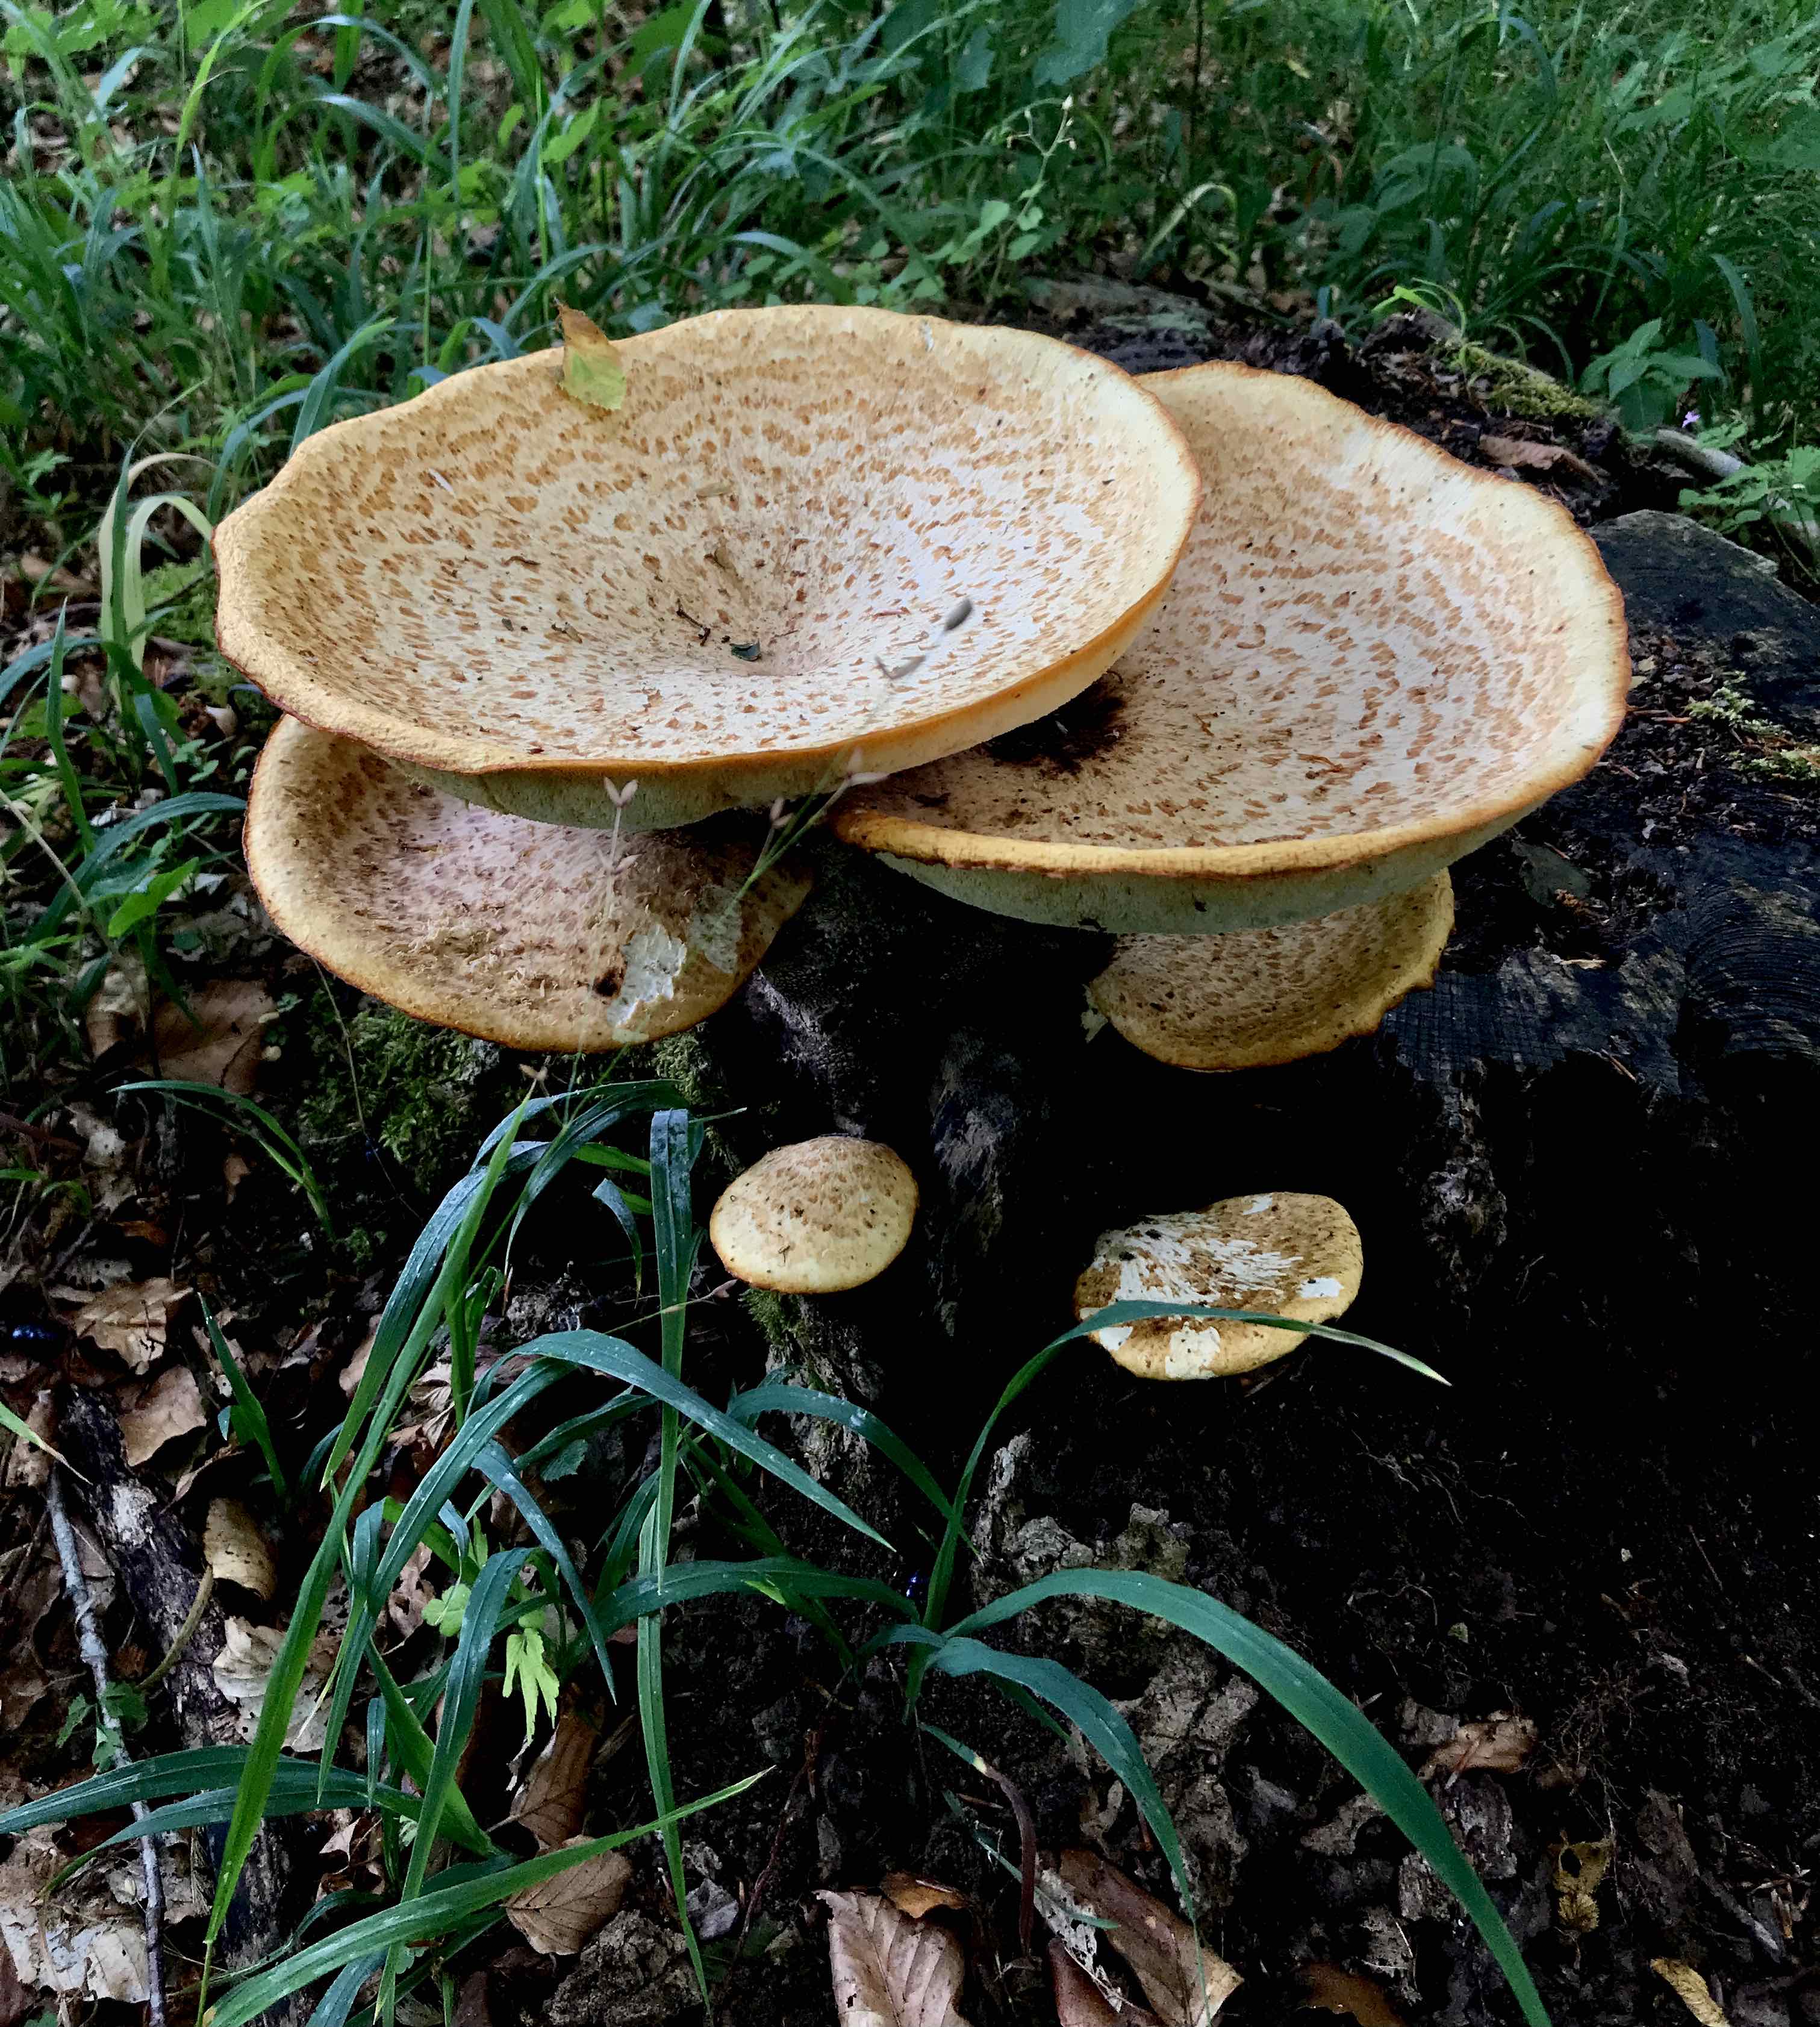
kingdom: Fungi
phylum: Basidiomycota
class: Agaricomycetes
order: Polyporales
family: Polyporaceae
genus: Cerioporus
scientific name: Cerioporus squamosus
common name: skællet stilkporesvamp
